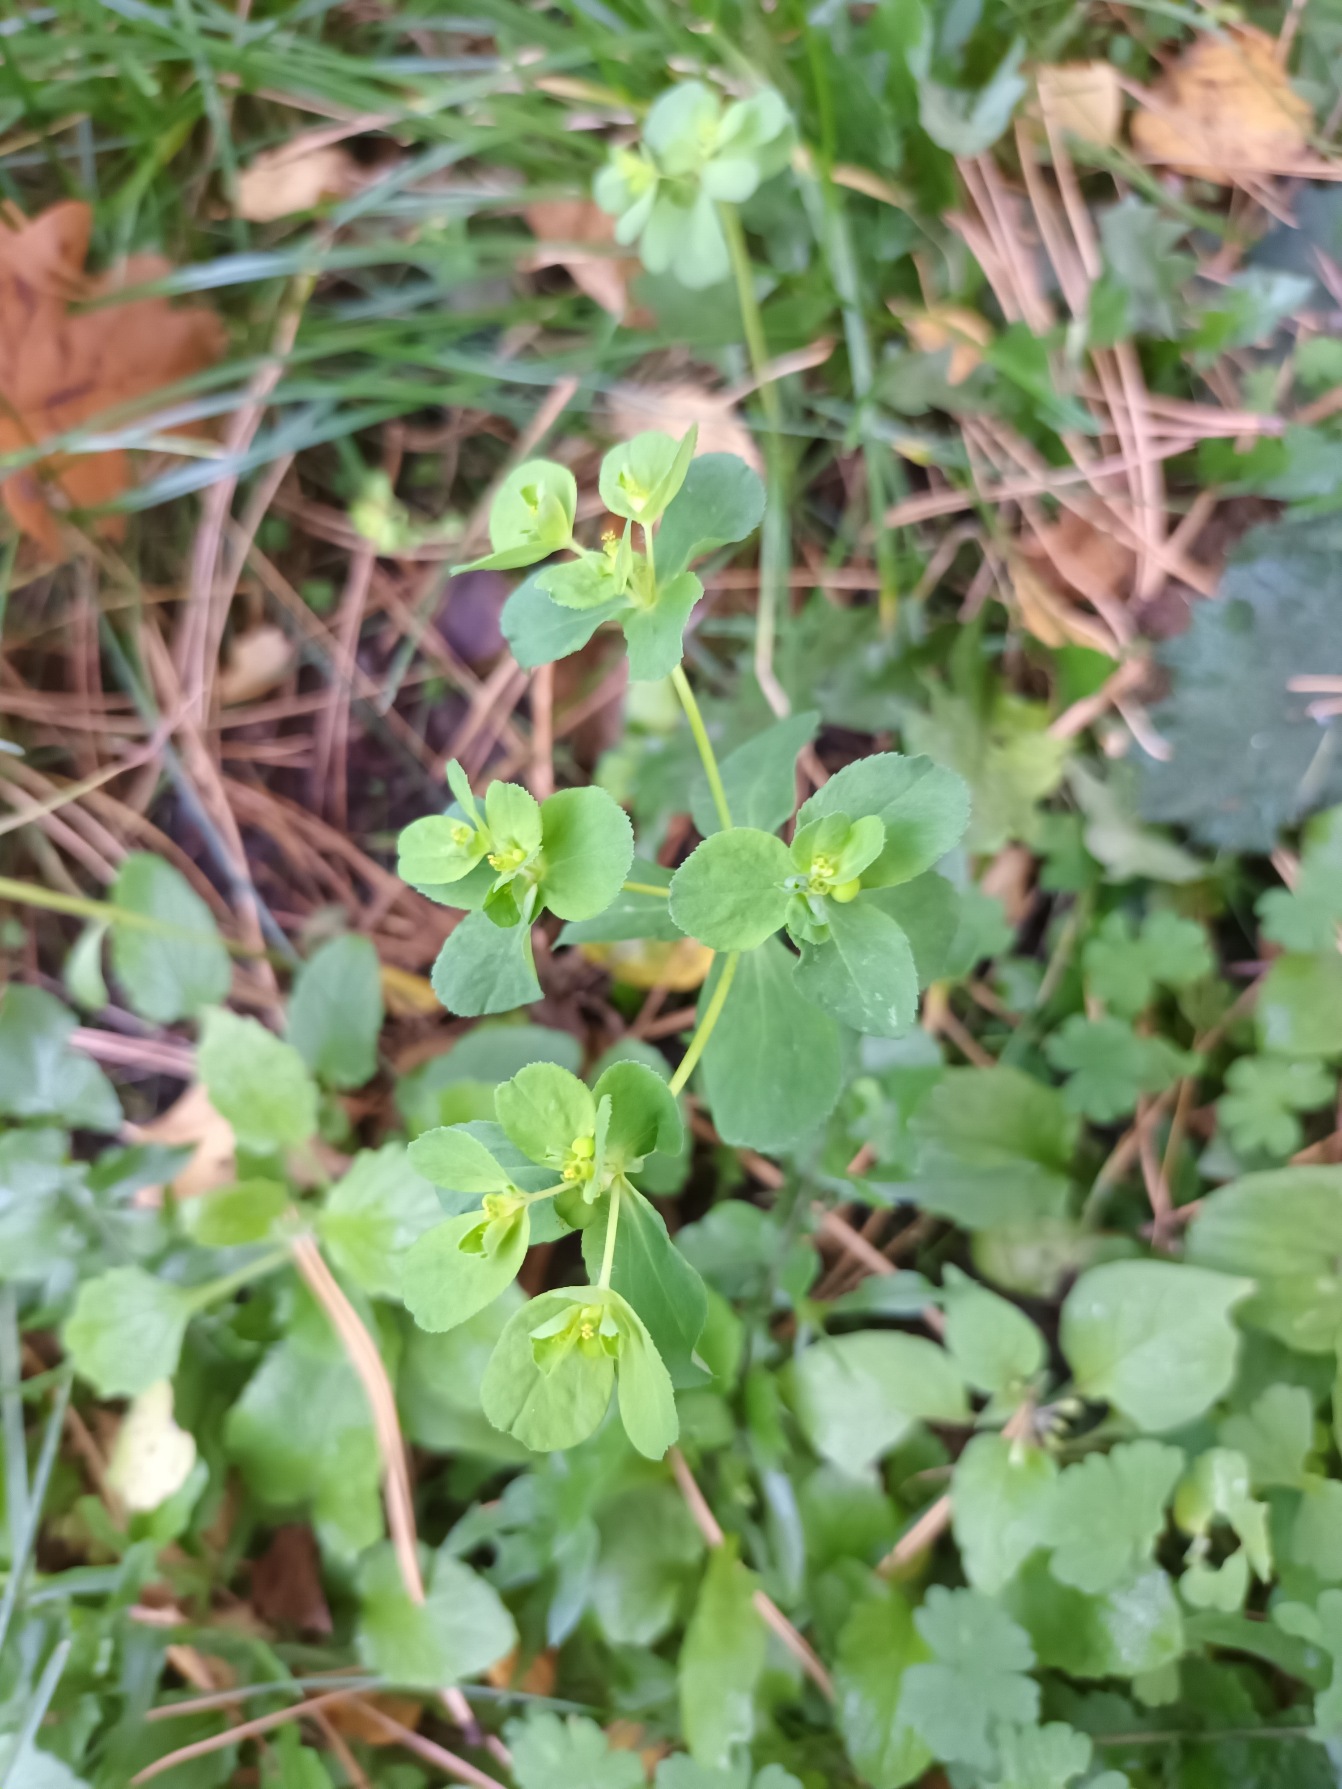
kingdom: Plantae
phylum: Tracheophyta
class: Magnoliopsida
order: Malpighiales
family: Euphorbiaceae
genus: Euphorbia
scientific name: Euphorbia helioscopia
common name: Skærm-vortemælk
